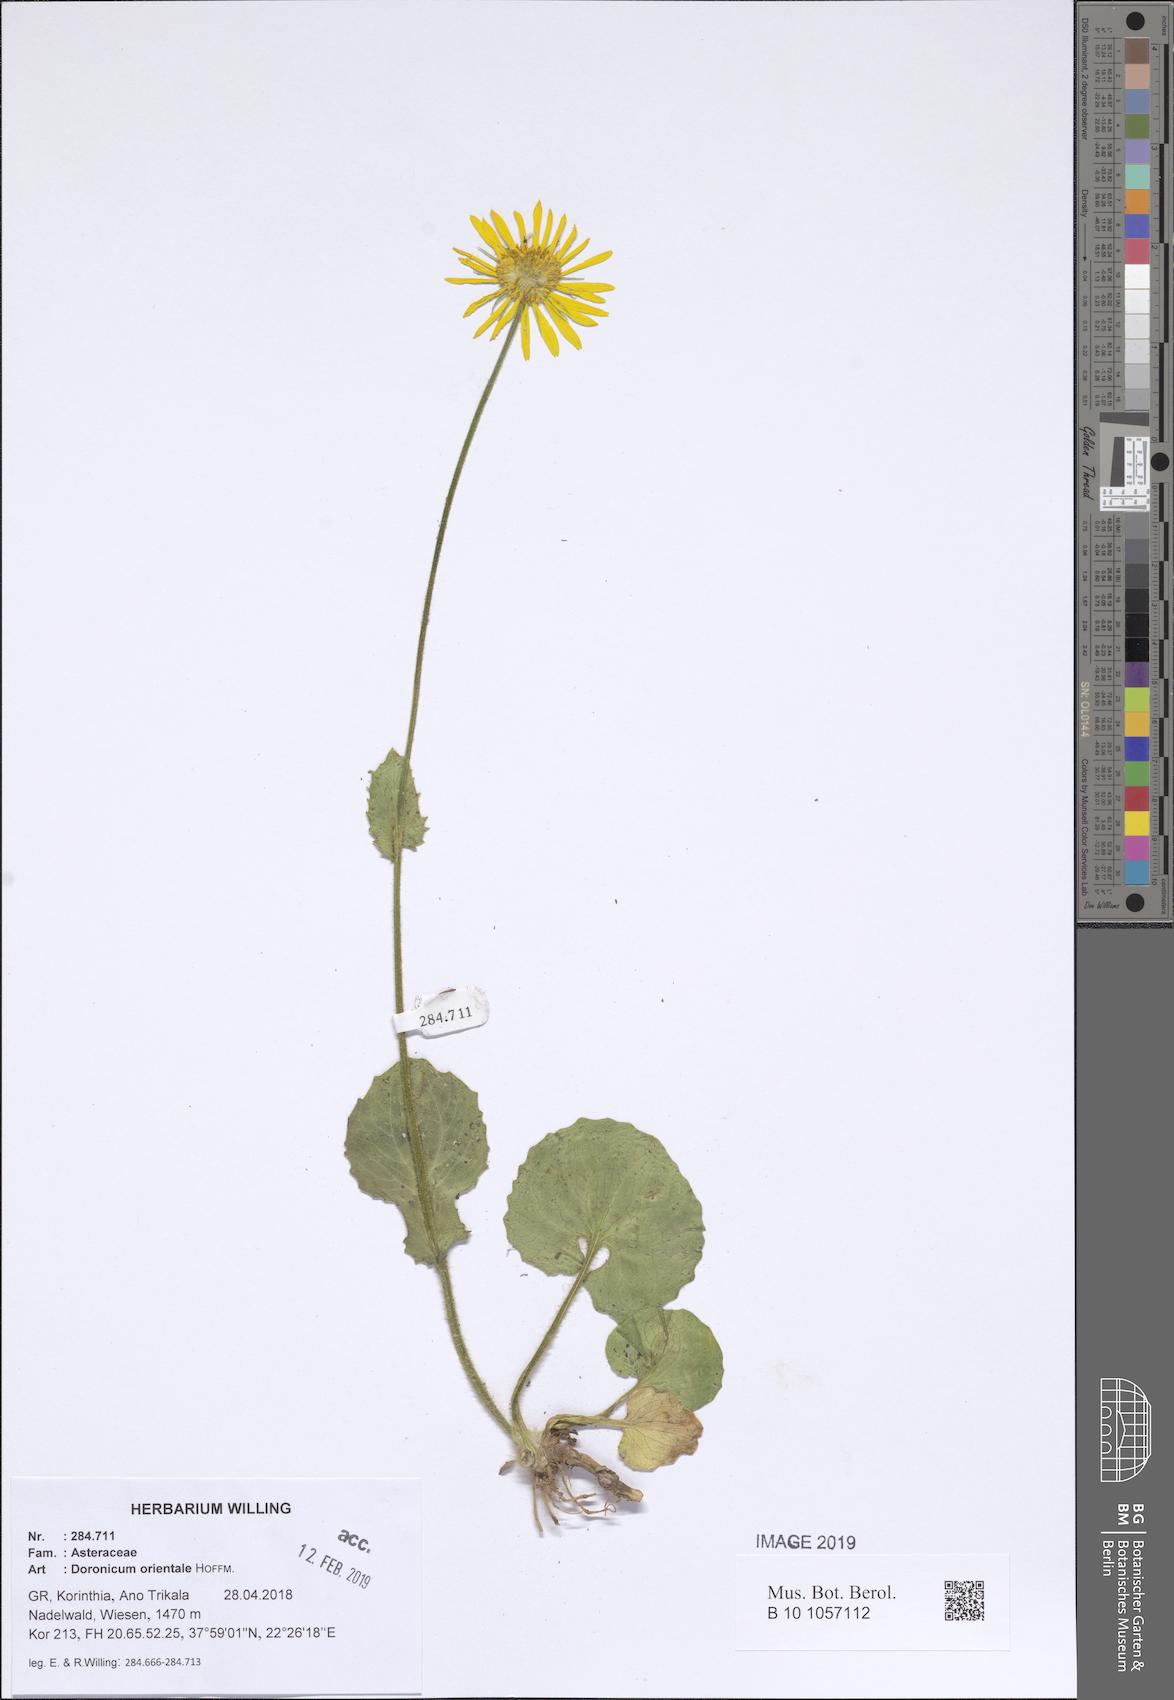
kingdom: Plantae
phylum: Tracheophyta
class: Magnoliopsida
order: Asterales
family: Asteraceae
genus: Doronicum
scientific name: Doronicum orientale
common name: Oriental leopard's-bane
